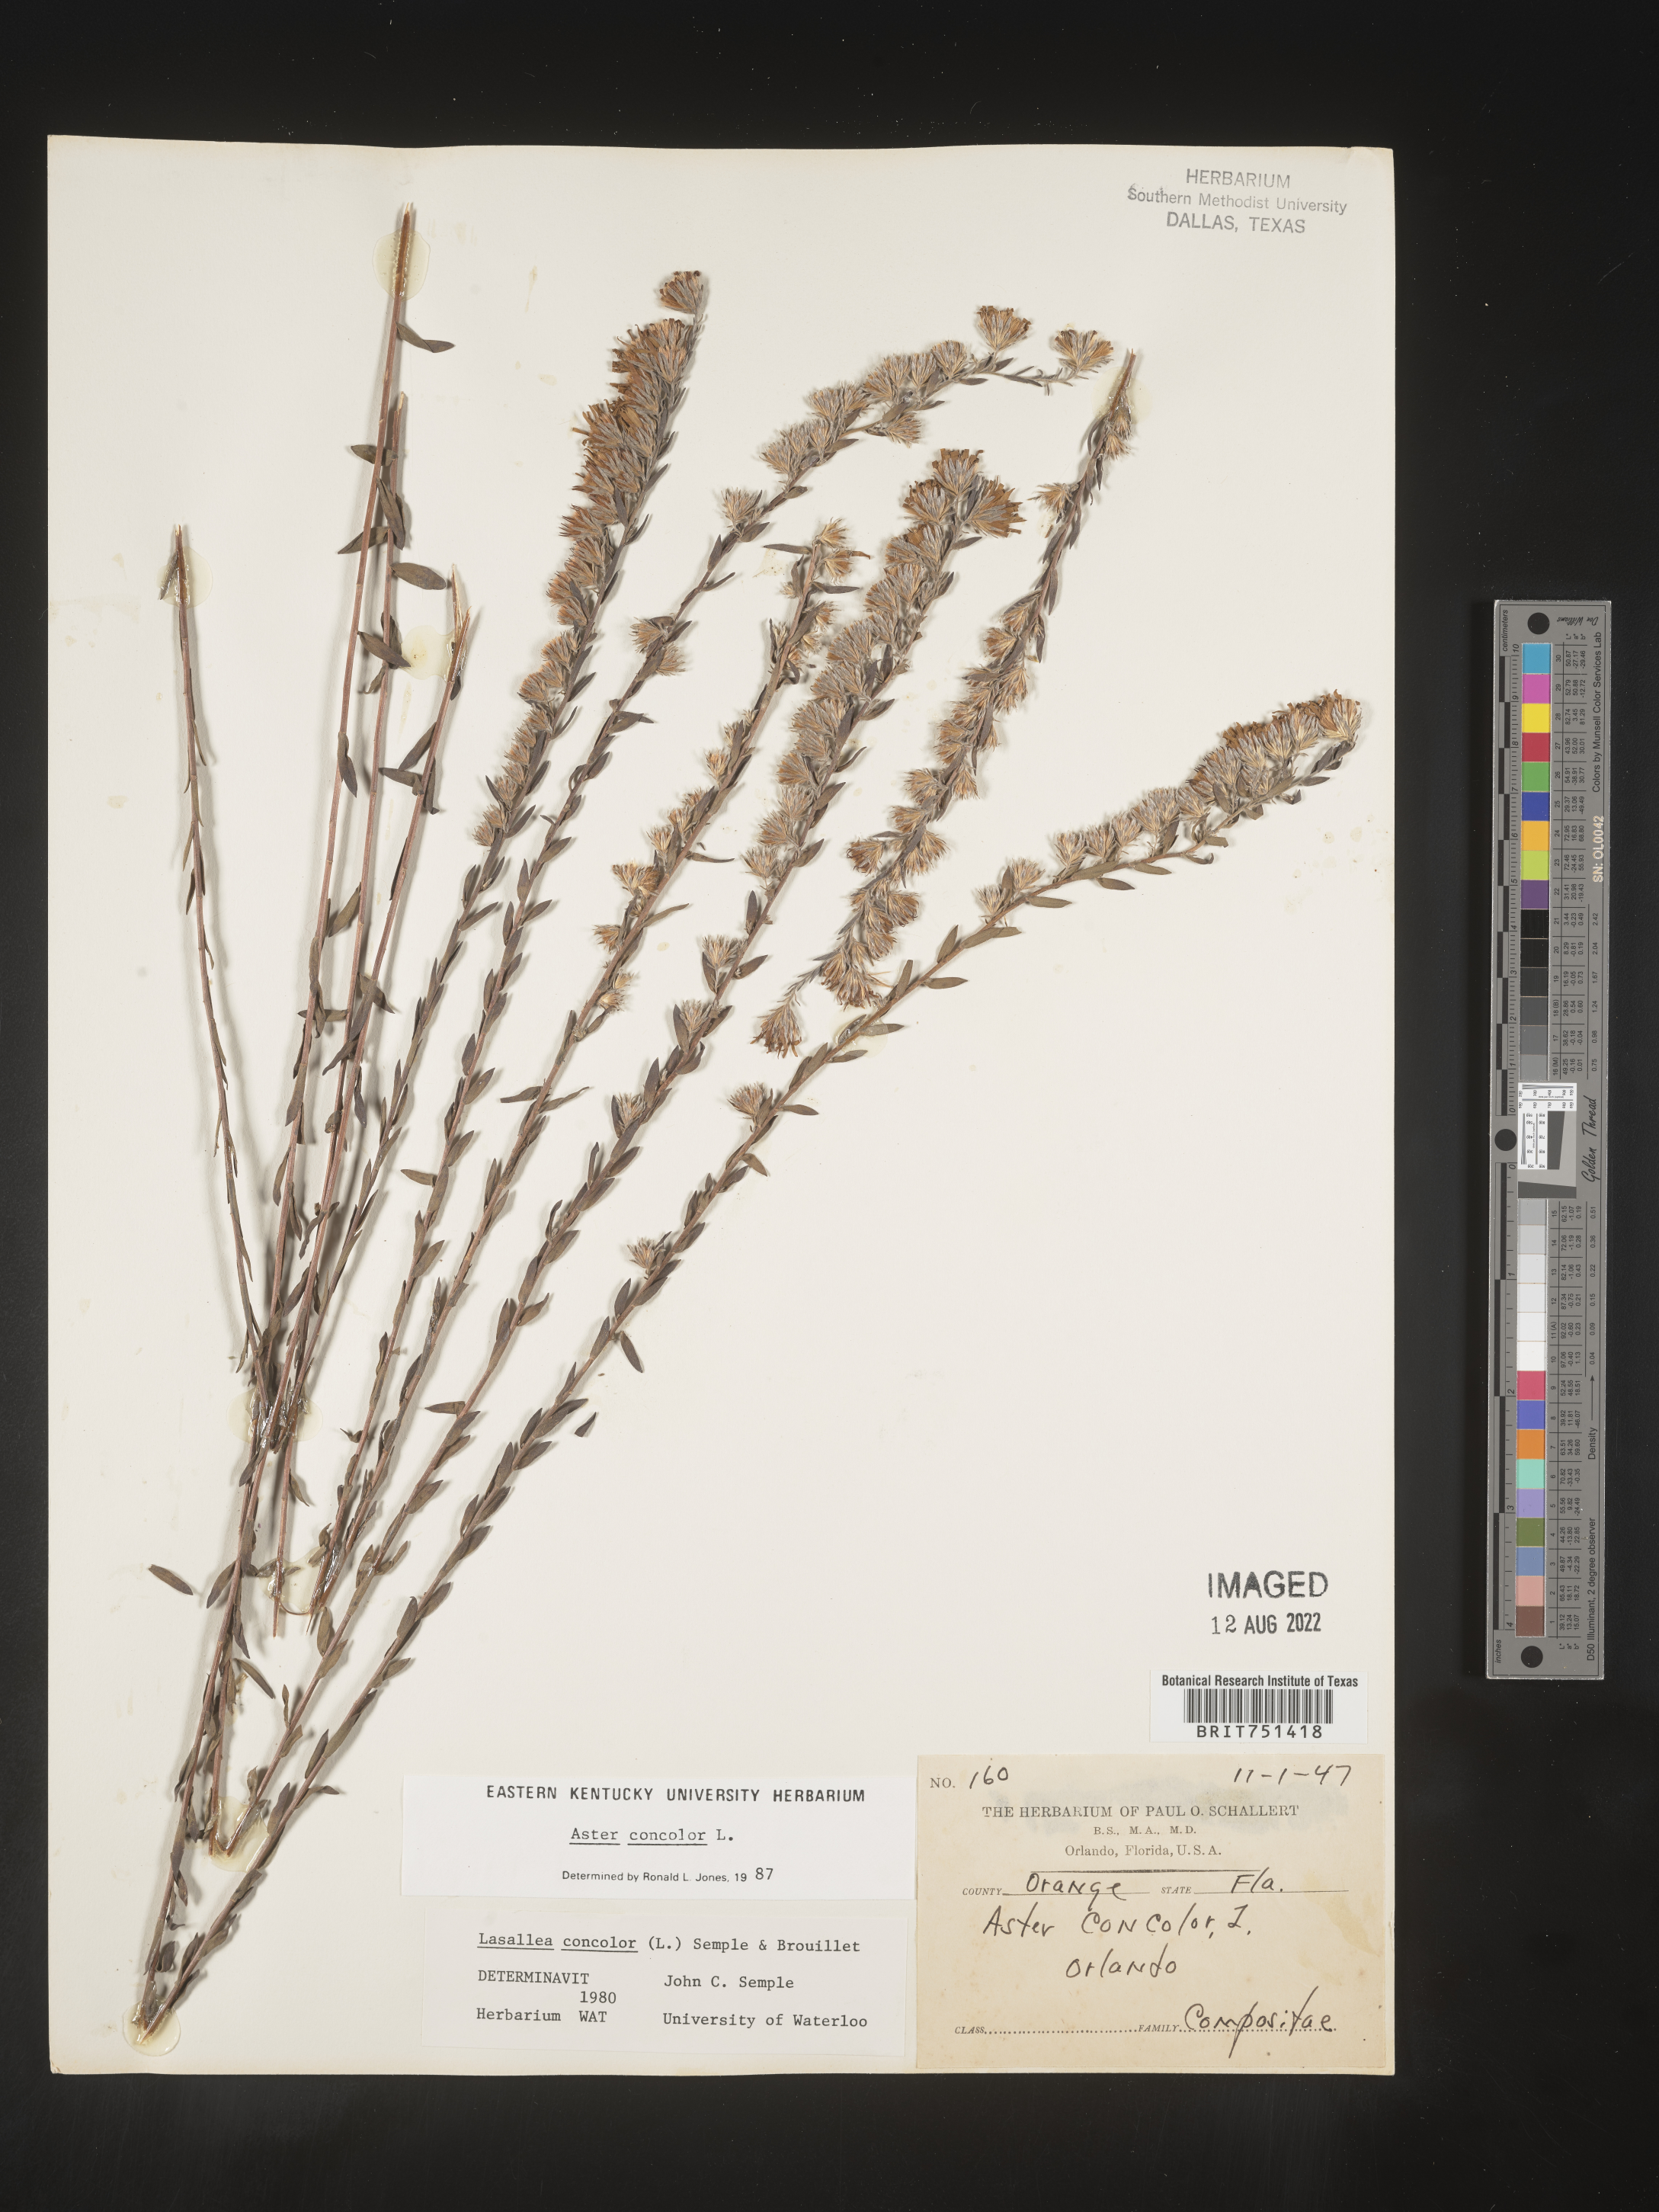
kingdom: Plantae
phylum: Tracheophyta
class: Magnoliopsida
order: Asterales
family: Asteraceae
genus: Symphyotrichum
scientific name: Symphyotrichum concolor
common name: Eastern silver aster
